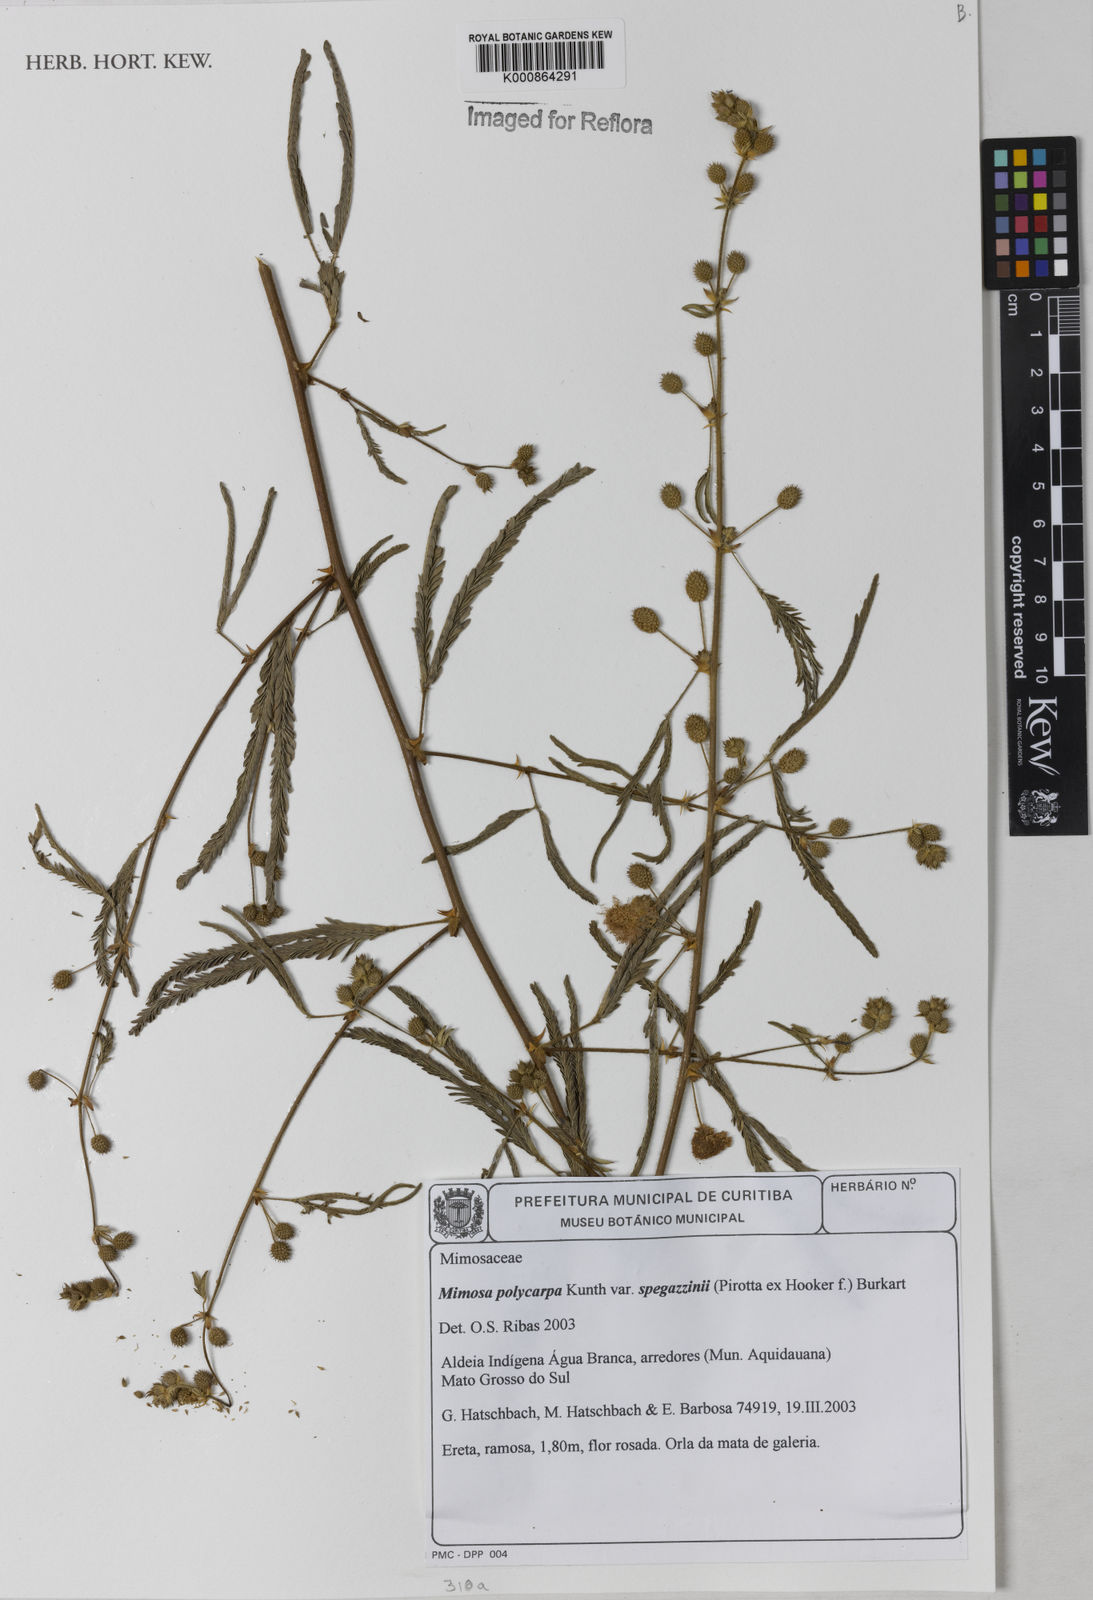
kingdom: Plantae
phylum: Tracheophyta
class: Magnoliopsida
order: Fabales
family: Fabaceae
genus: Mimosa
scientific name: Mimosa polycarpa
